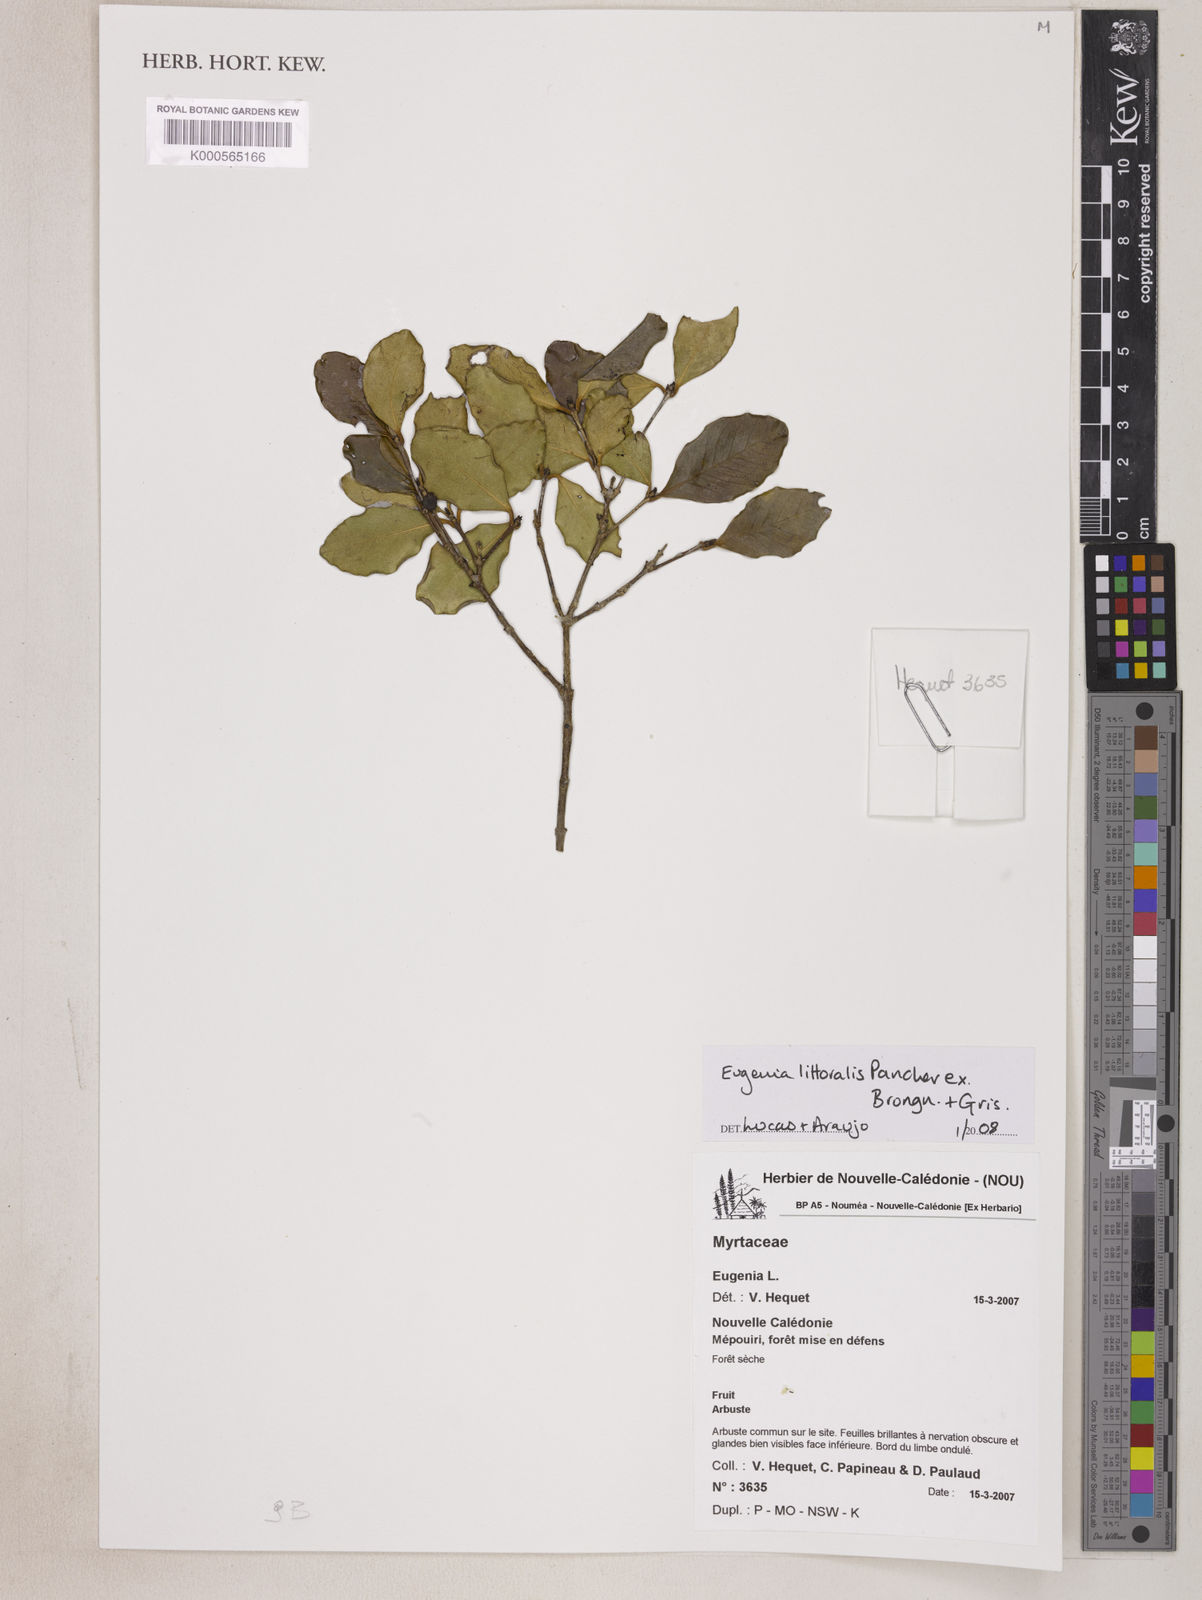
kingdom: Plantae
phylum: Tracheophyta
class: Magnoliopsida
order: Myrtales
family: Myrtaceae
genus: Eugenia
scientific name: Eugenia littoralis
